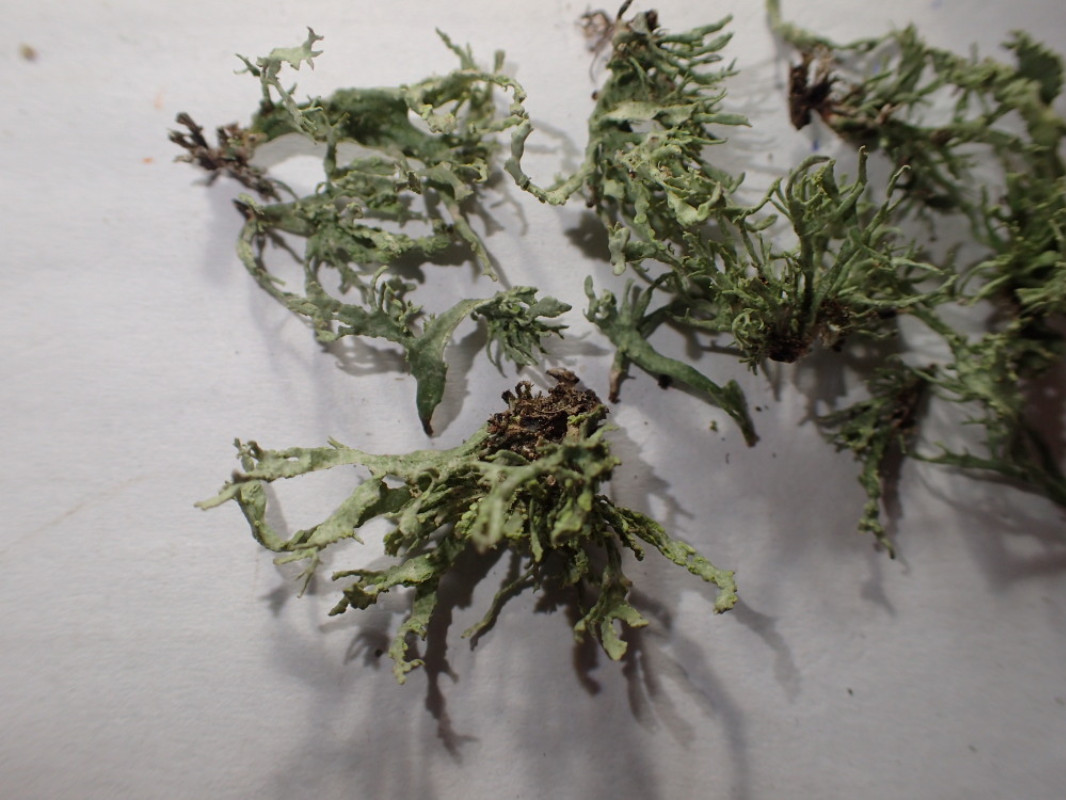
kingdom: Fungi
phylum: Ascomycota
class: Lecanoromycetes
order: Lecanorales
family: Ramalinaceae
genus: Ramalina
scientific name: Ramalina farinacea
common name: melet grenlav
